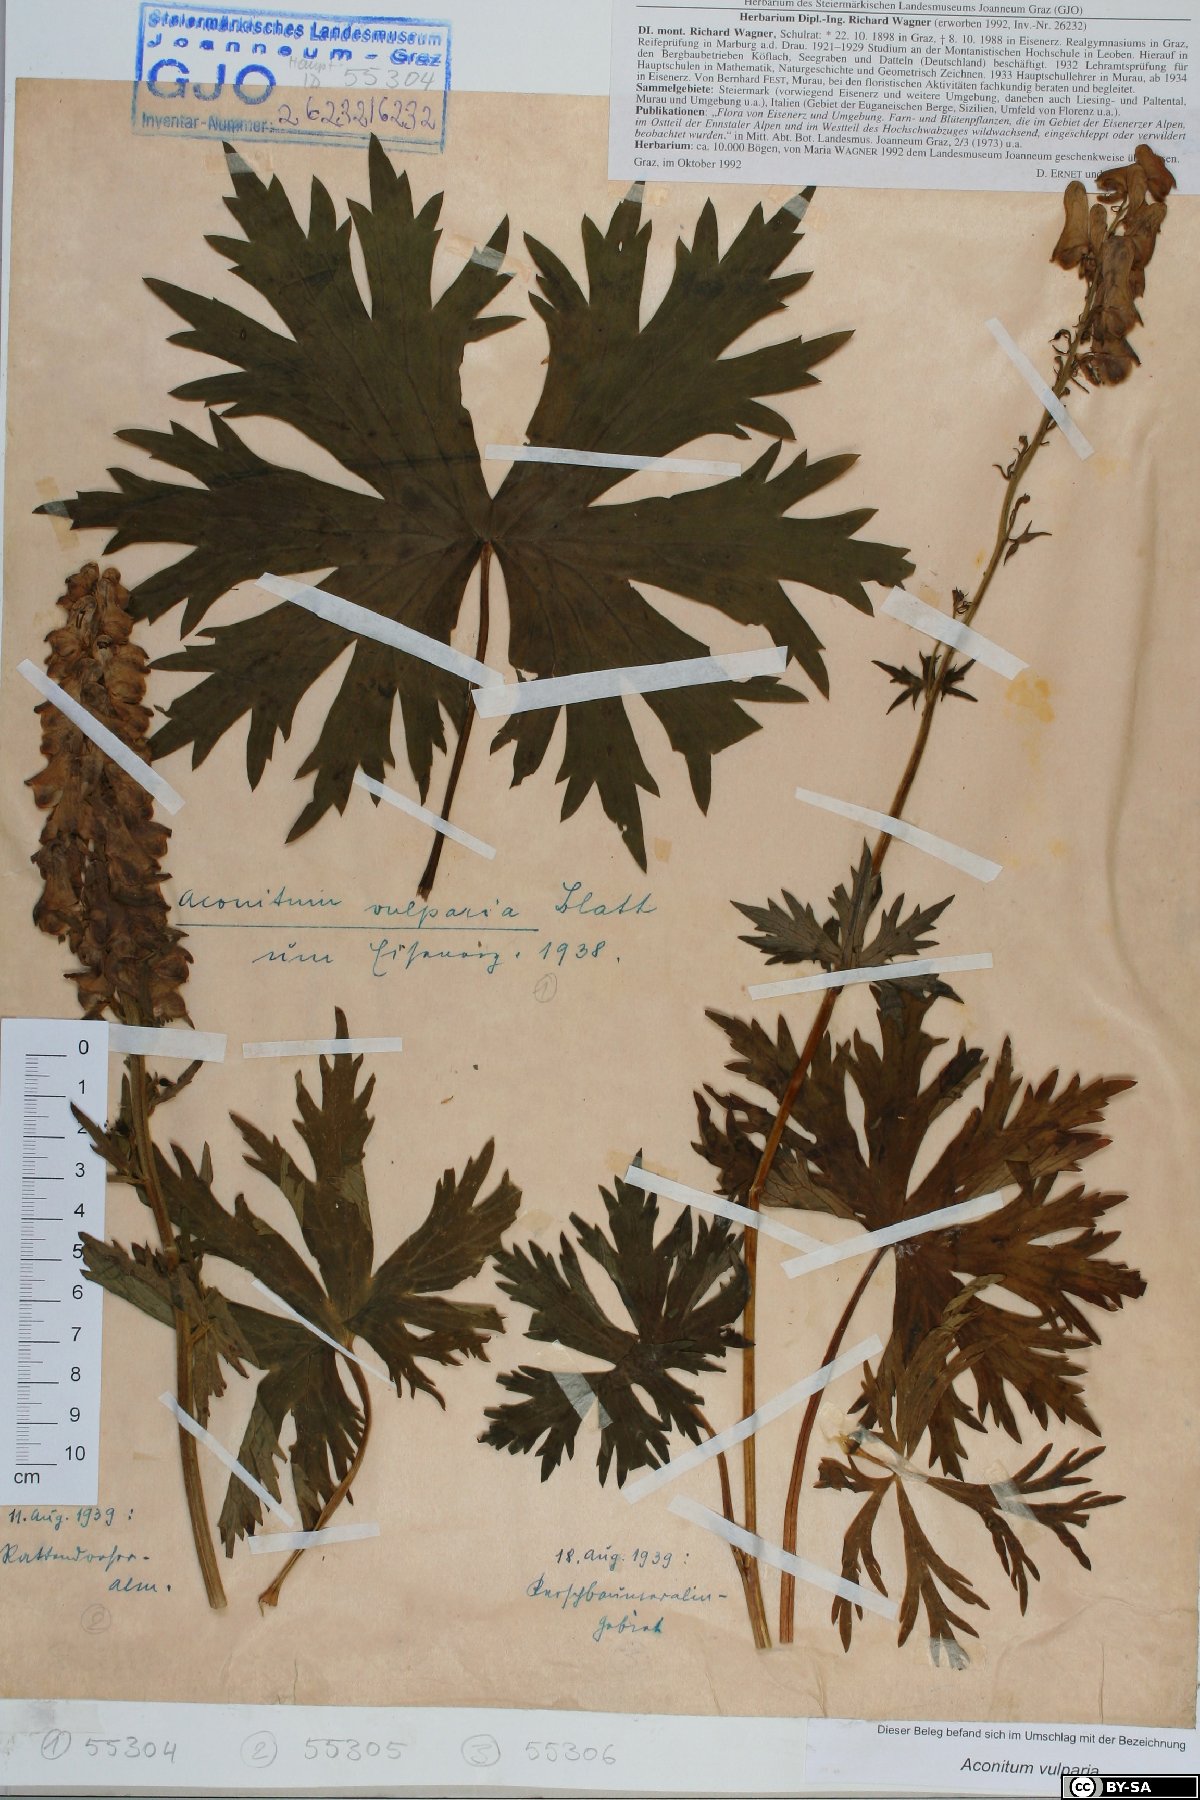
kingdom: Plantae
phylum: Tracheophyta
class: Magnoliopsida
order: Ranunculales
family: Ranunculaceae
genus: Aconitum
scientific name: Aconitum lycoctonum
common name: Wolf's-bane
